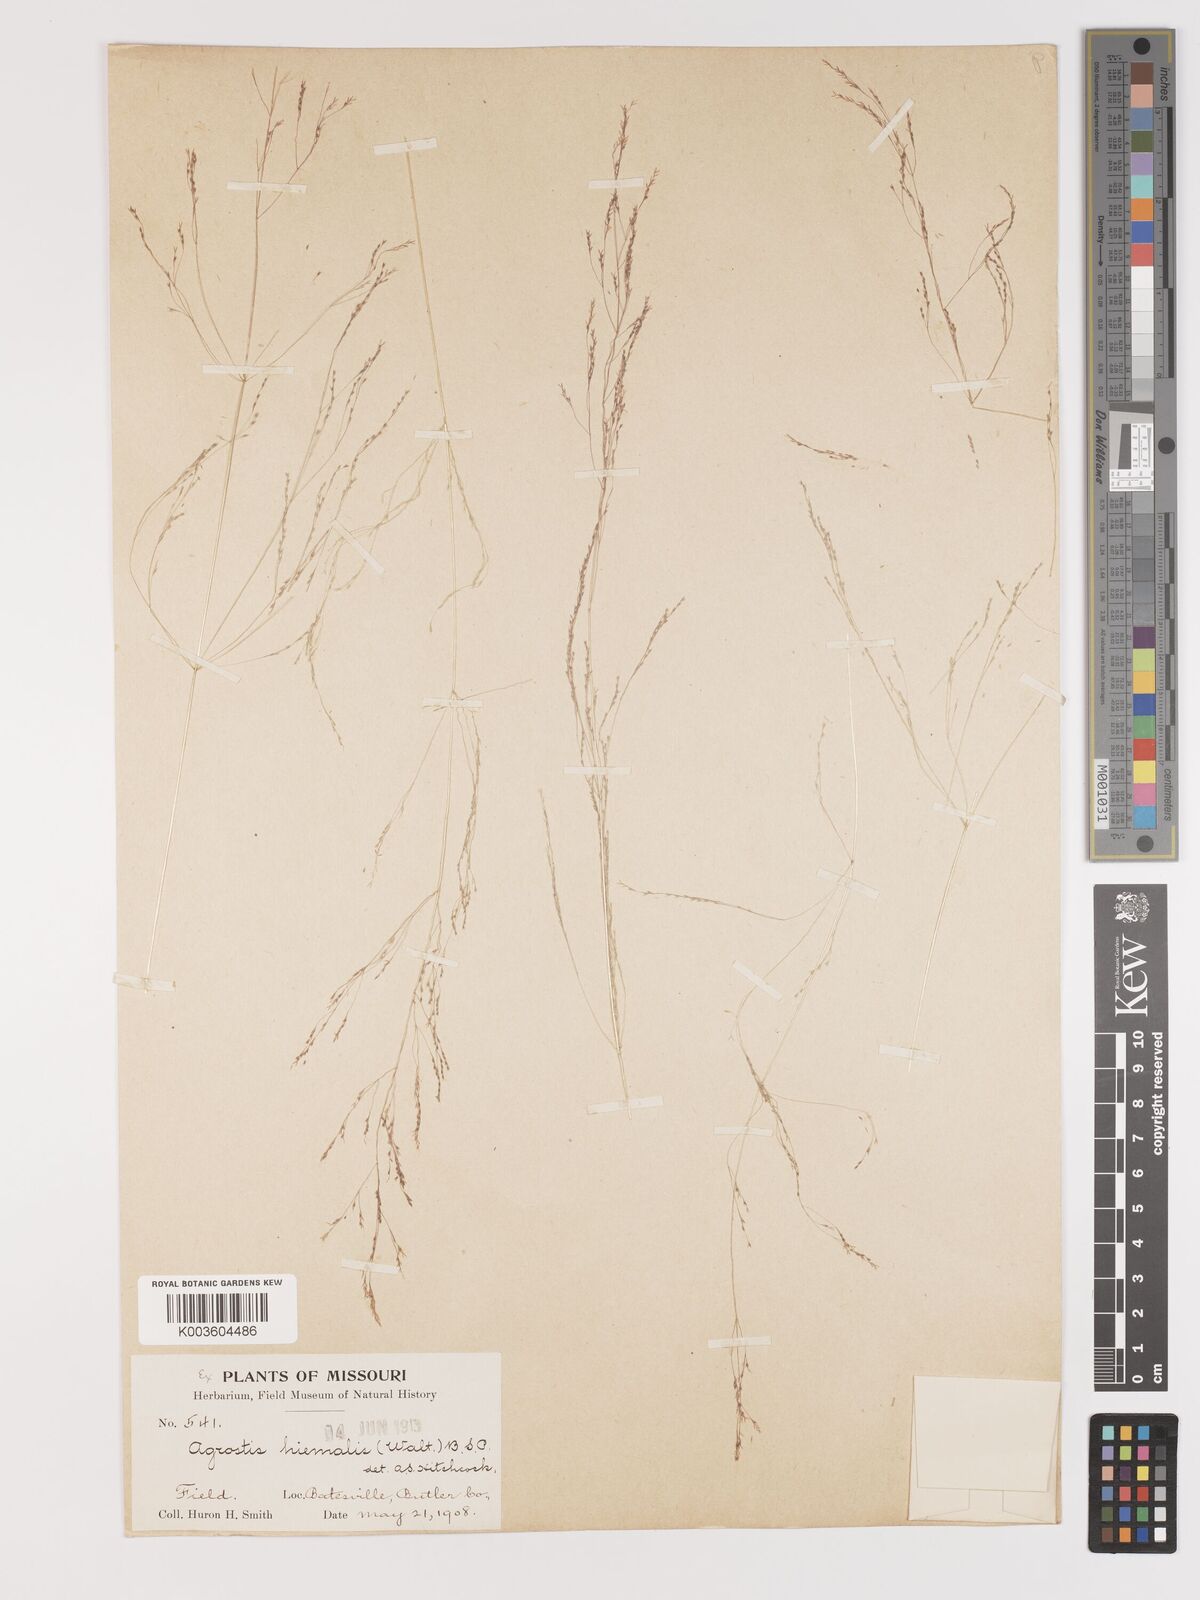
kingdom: Plantae
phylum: Tracheophyta
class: Liliopsida
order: Poales
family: Poaceae
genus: Agrostis
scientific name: Agrostis hyemalis
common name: Small bent
